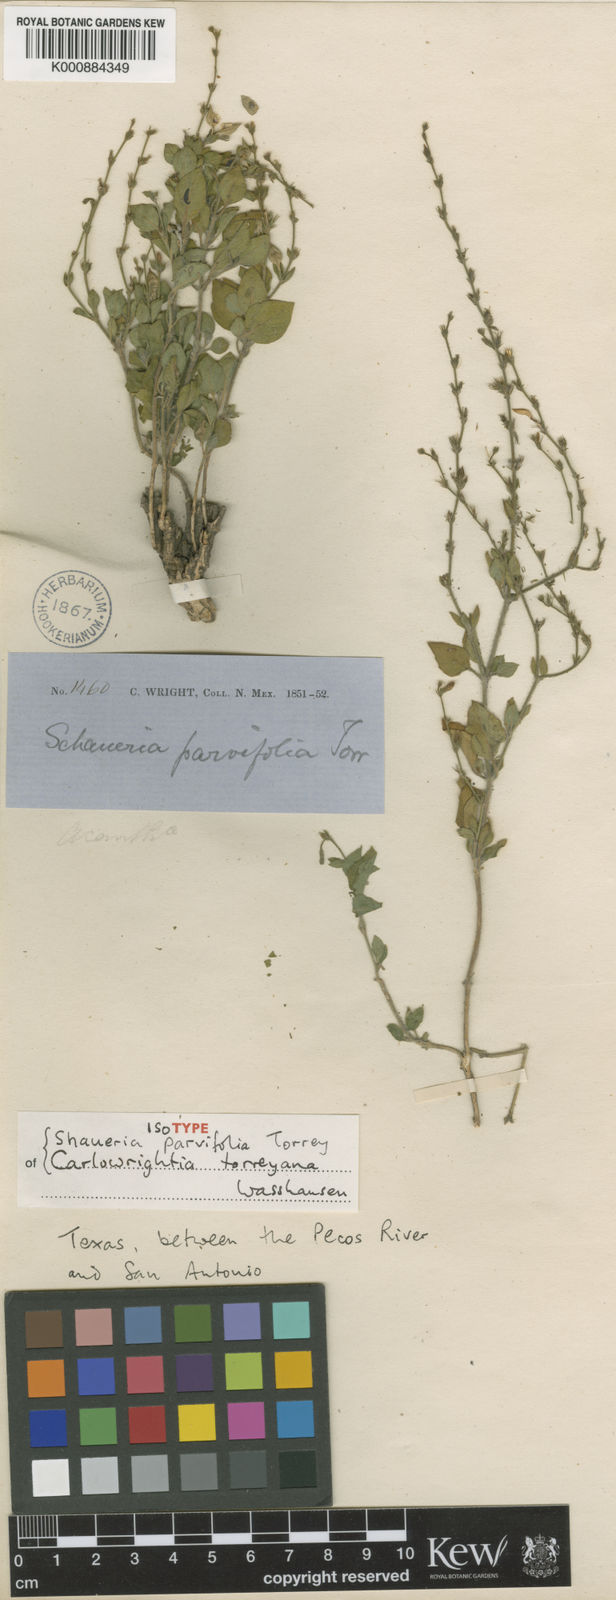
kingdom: Plantae
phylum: Tracheophyta
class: Magnoliopsida
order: Lamiales
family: Acanthaceae
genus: Carlowrightia
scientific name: Carlowrightia torreyana
